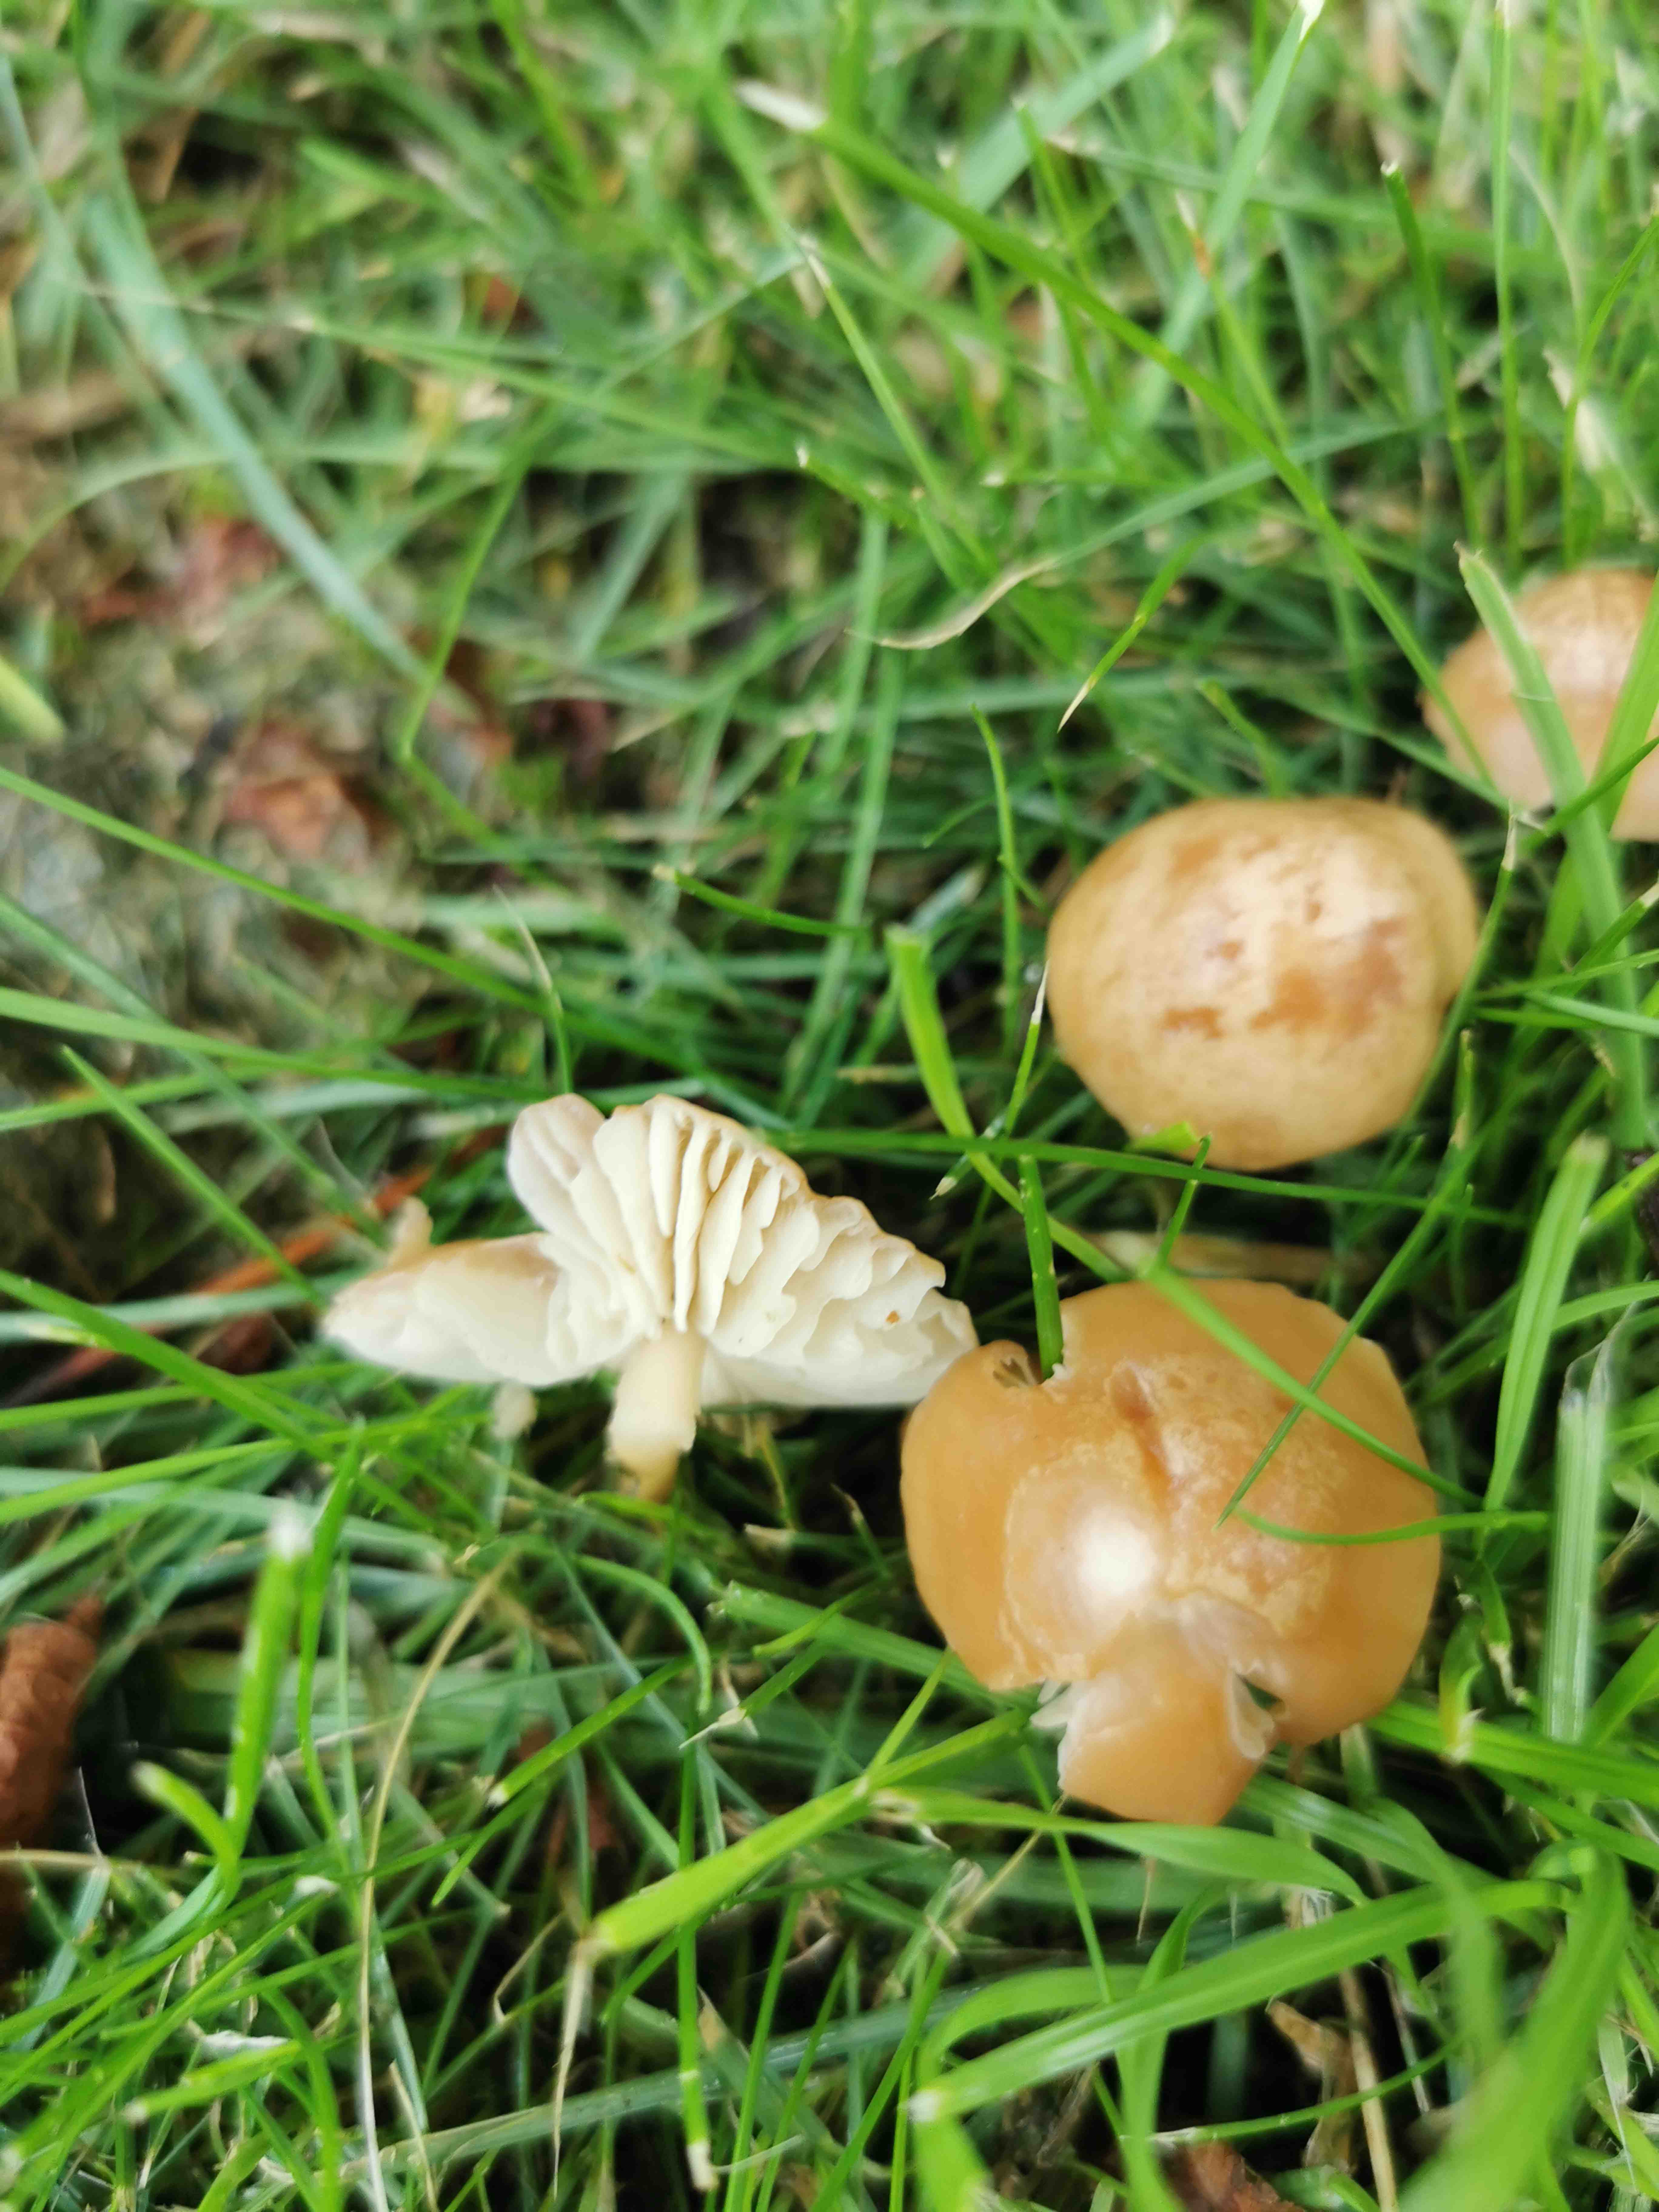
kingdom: Fungi
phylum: Basidiomycota
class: Agaricomycetes
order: Agaricales
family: Marasmiaceae
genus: Marasmius
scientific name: Marasmius oreades
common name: elledans-bruskhat
